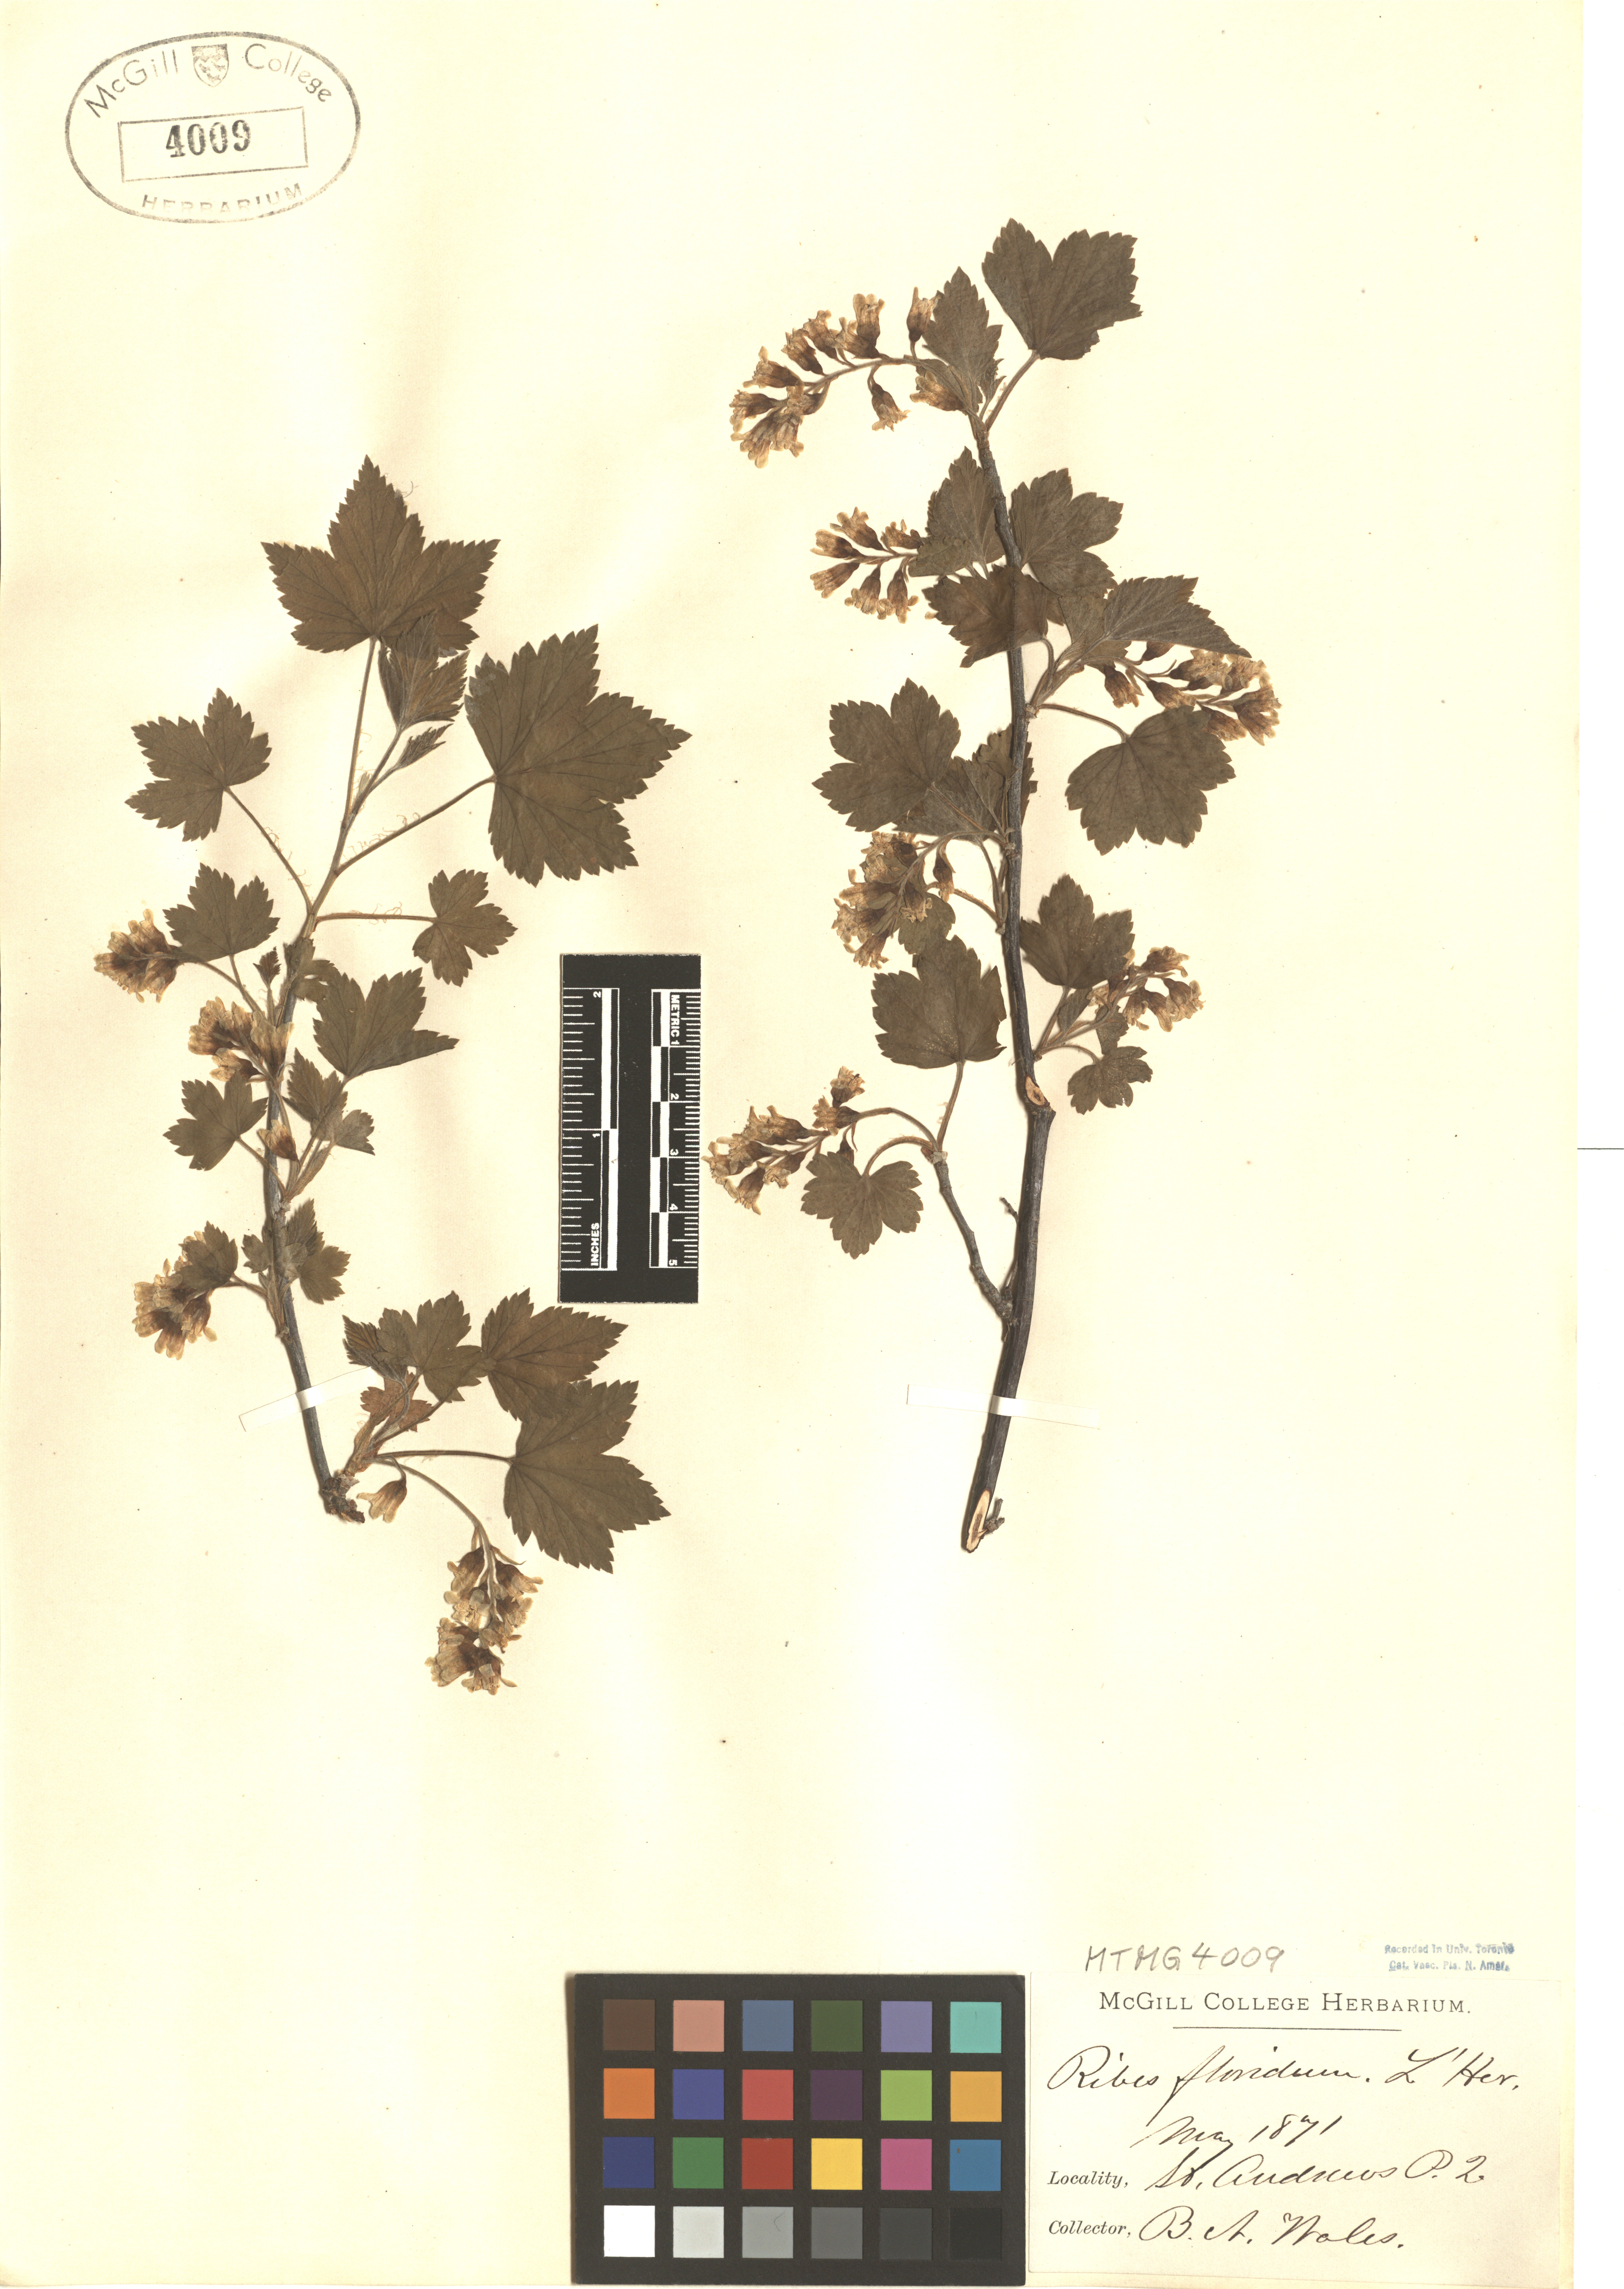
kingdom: Plantae
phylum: Tracheophyta
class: Magnoliopsida
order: Saxifragales
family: Grossulariaceae
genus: Ribes
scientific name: Ribes americanum
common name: American black currant
